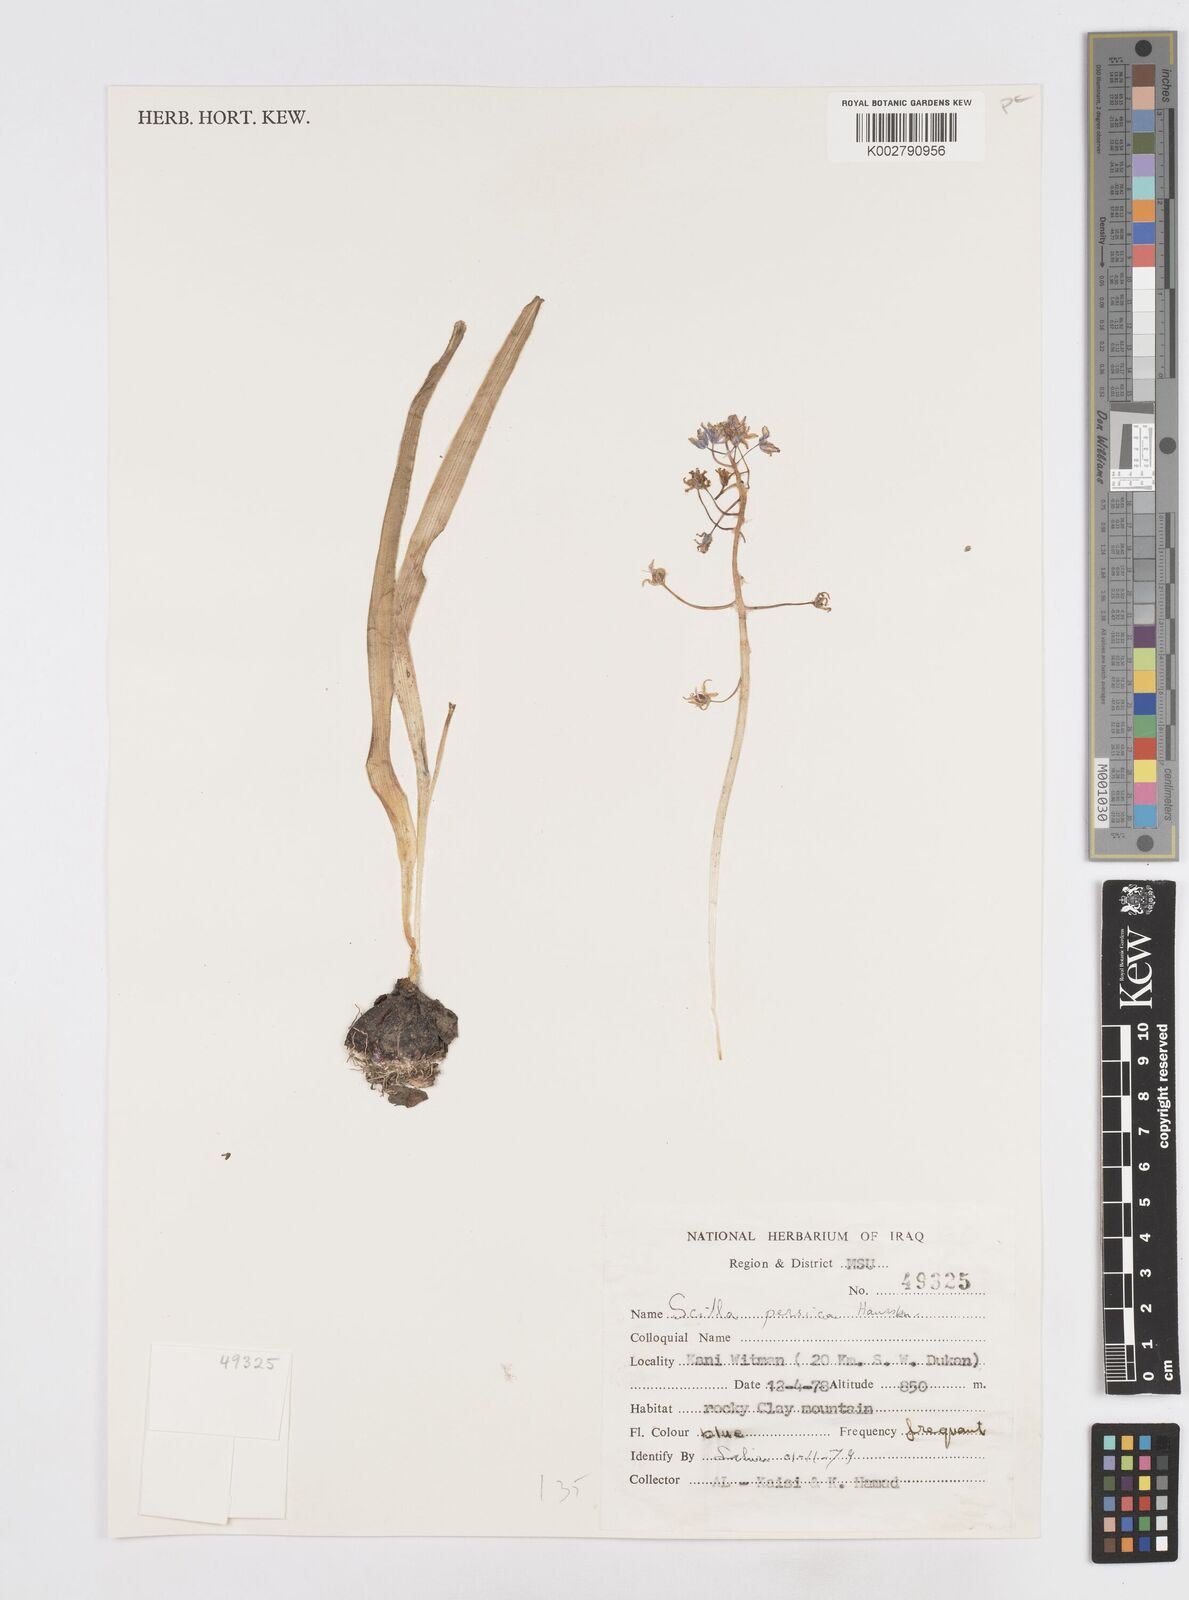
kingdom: Plantae
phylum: Tracheophyta
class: Liliopsida
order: Asparagales
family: Asparagaceae
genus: Zagrosia
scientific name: Zagrosia persica
